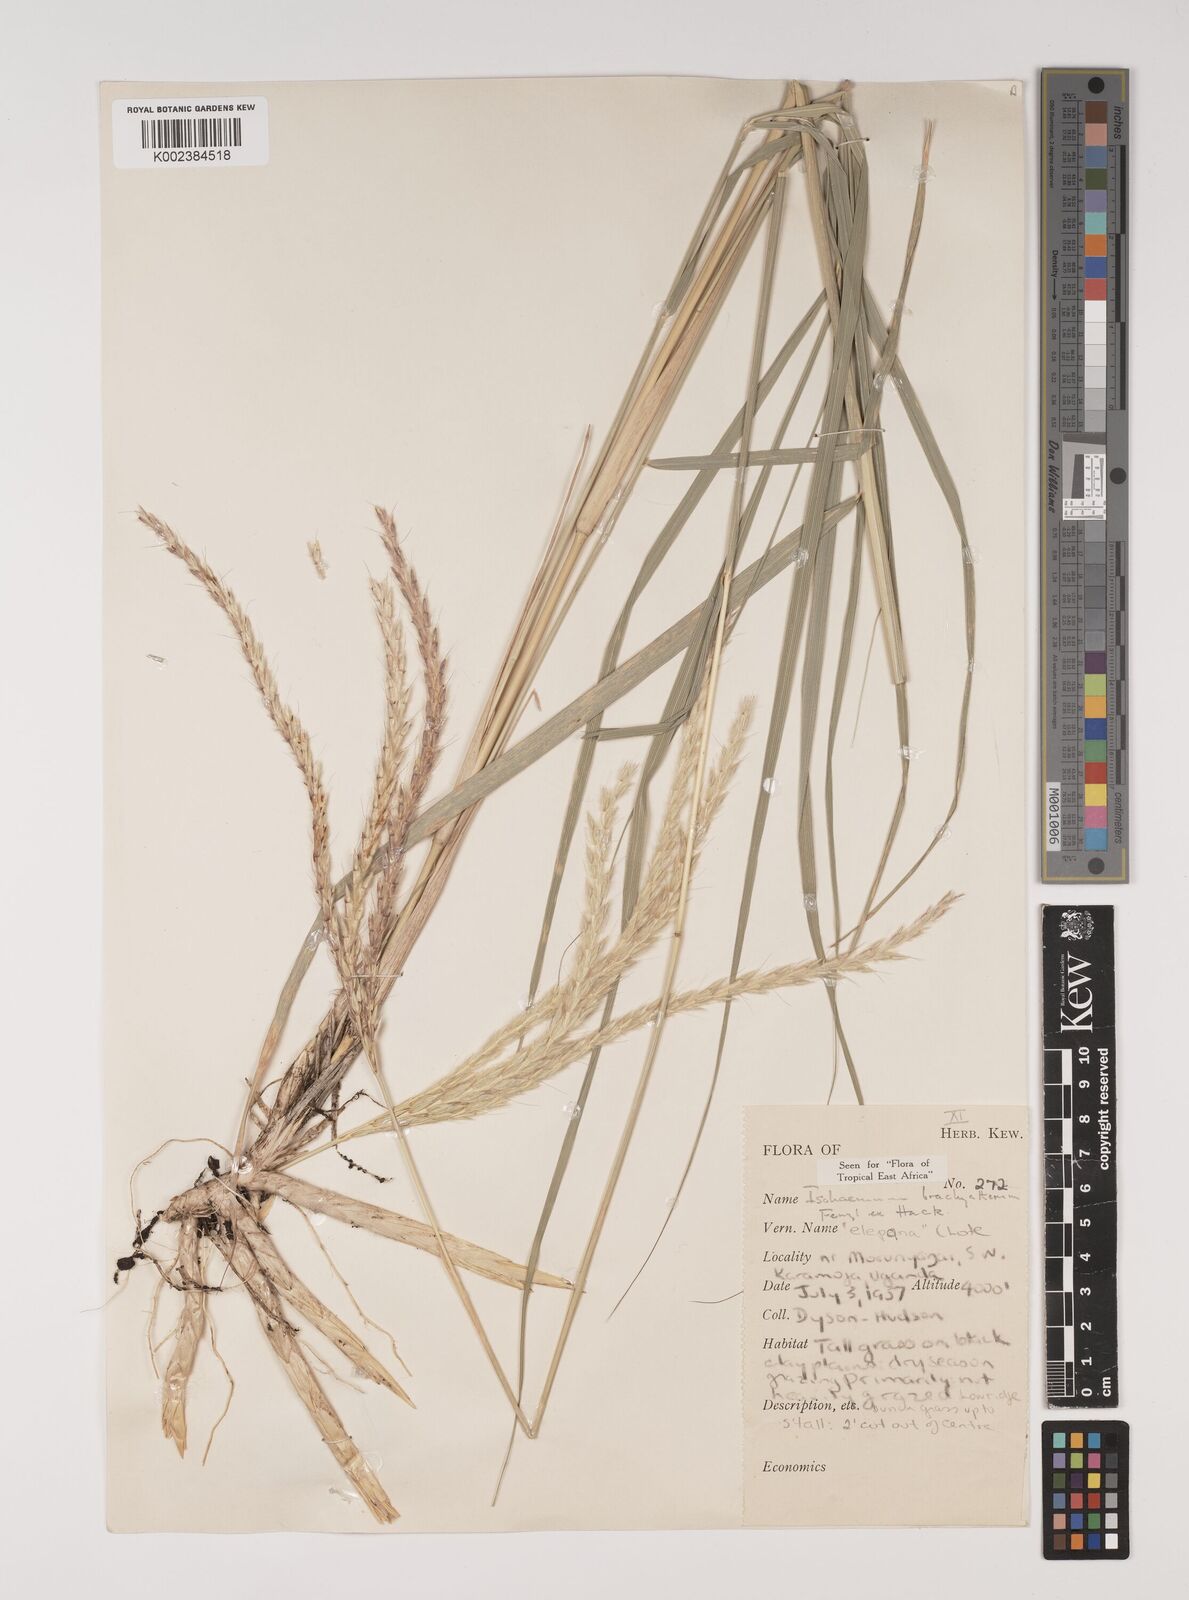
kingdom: Plantae
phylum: Tracheophyta
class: Liliopsida
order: Poales
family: Poaceae
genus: Ischaemum
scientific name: Ischaemum afrum
